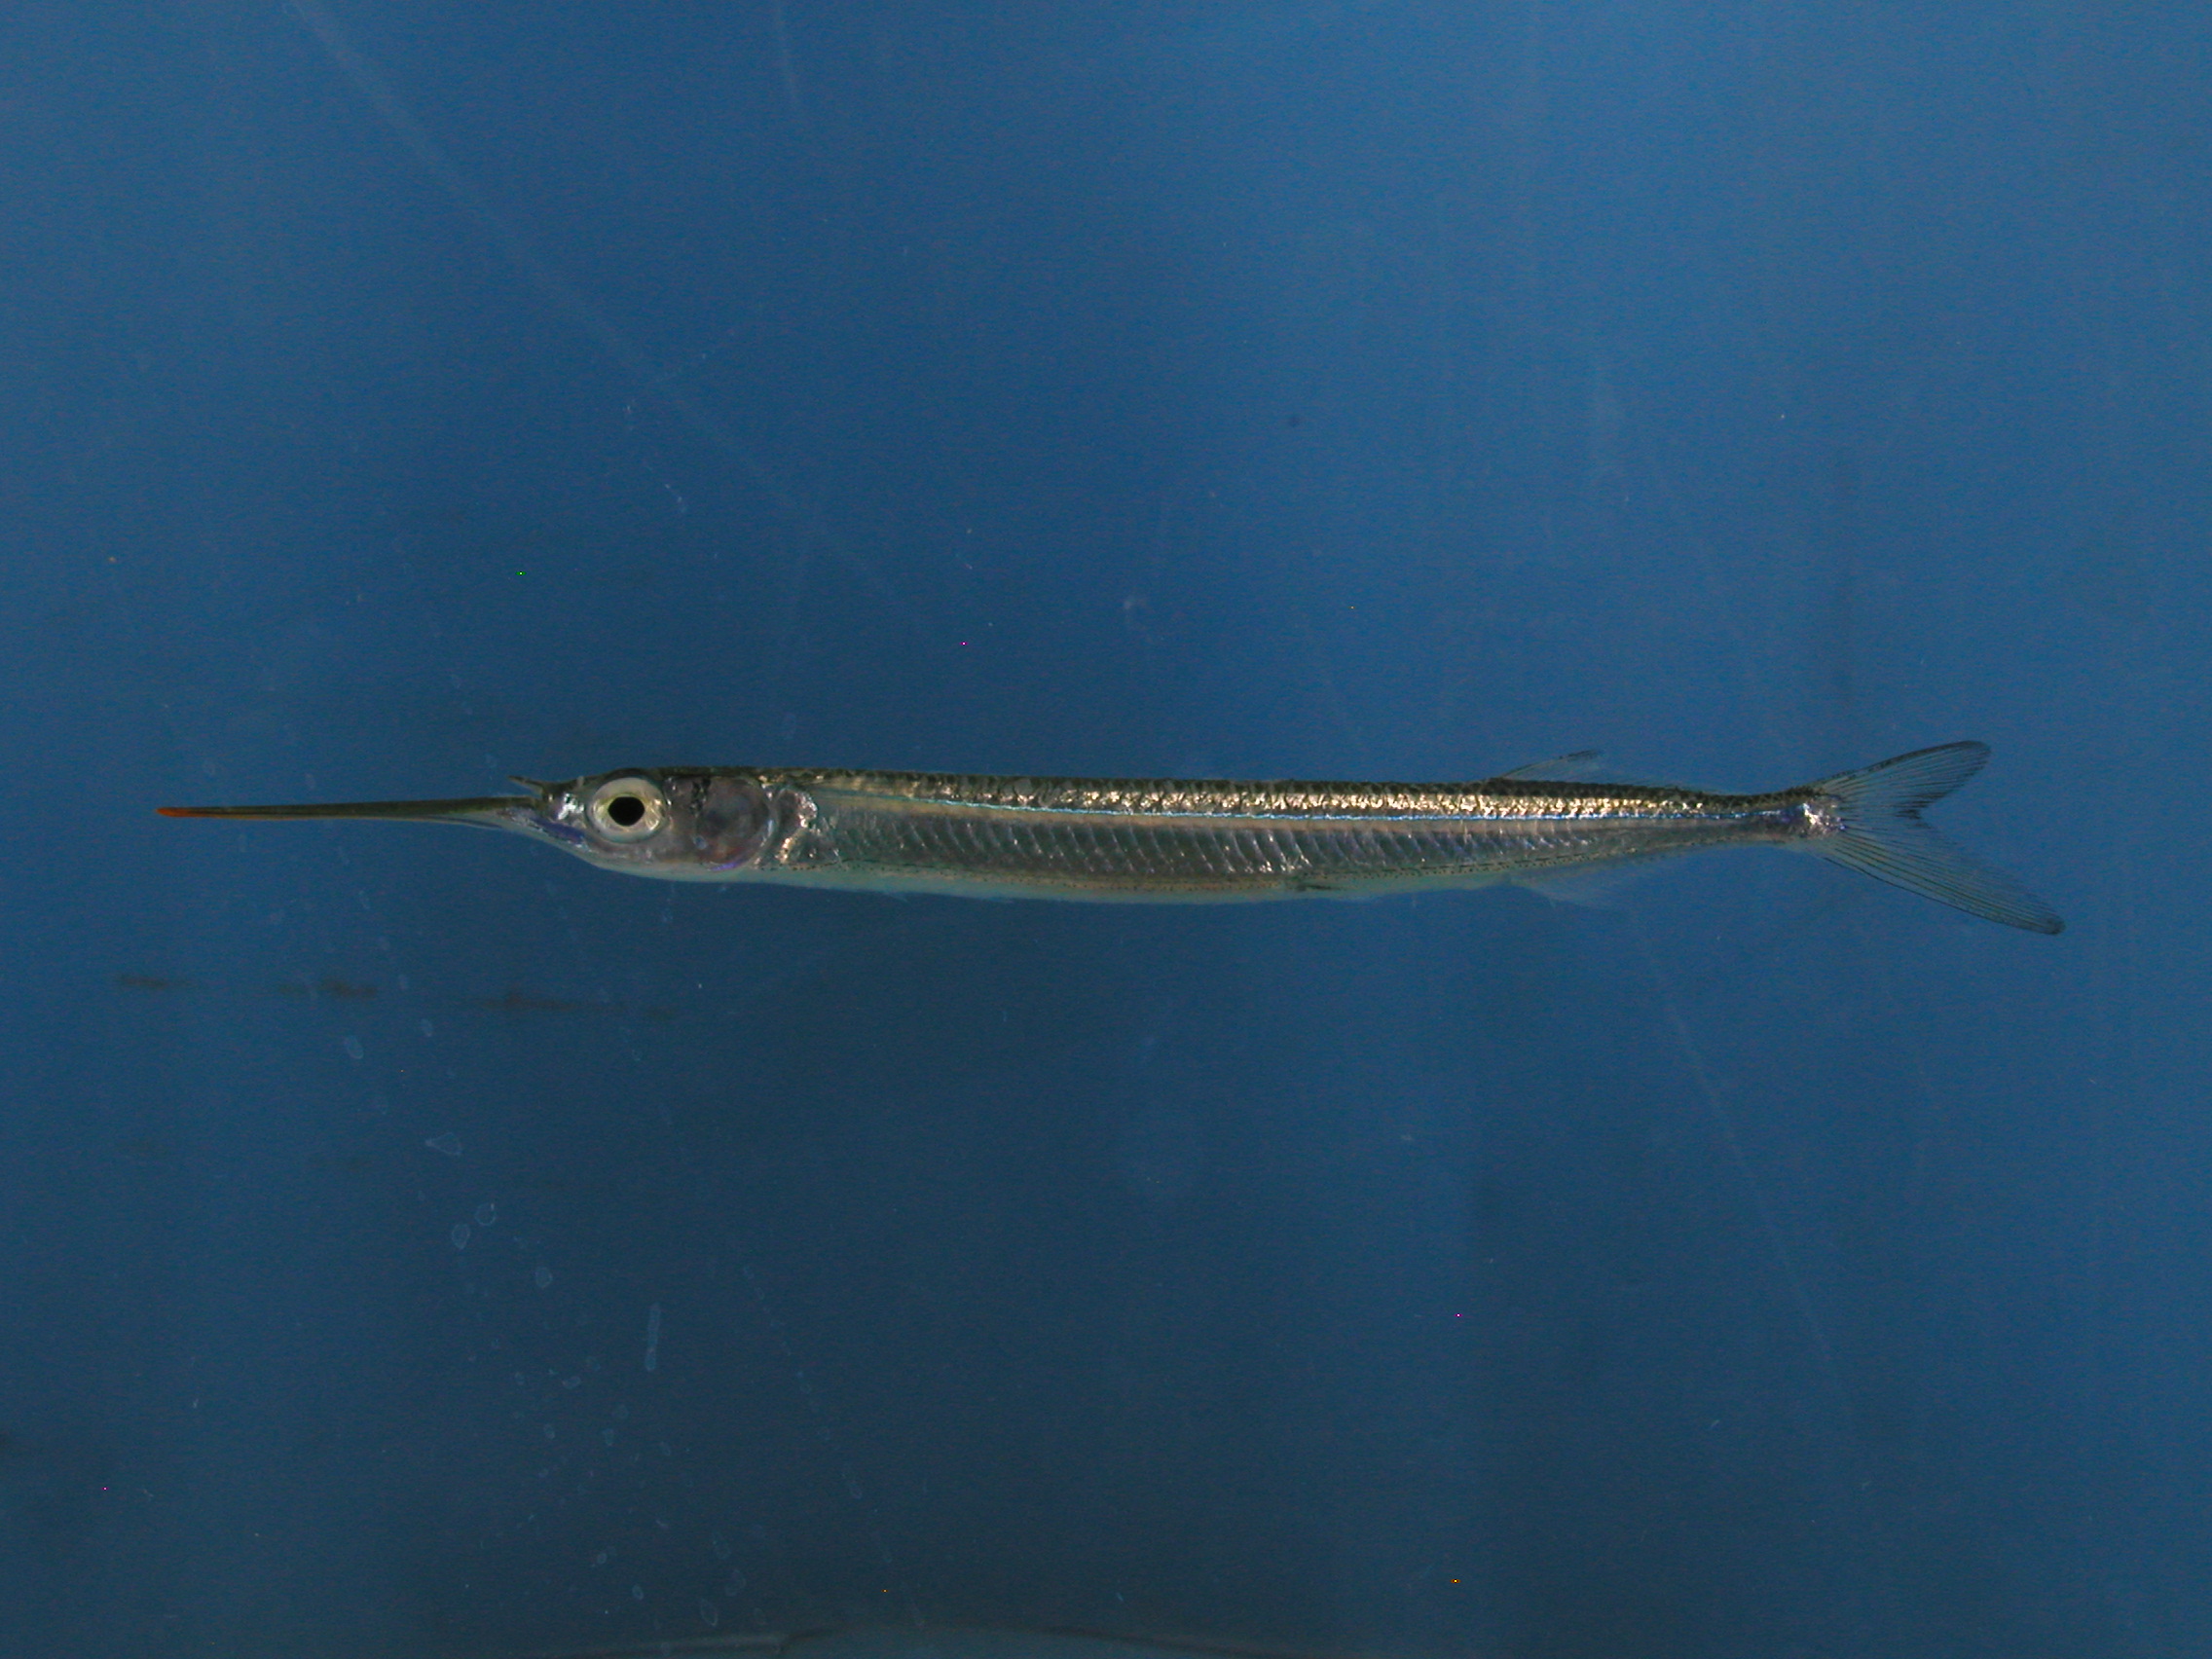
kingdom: Animalia
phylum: Chordata
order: Beloniformes
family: Hemiramphidae
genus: Hyporhamphus
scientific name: Hyporhamphus dussumieri
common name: Dussumier's halfbeak
